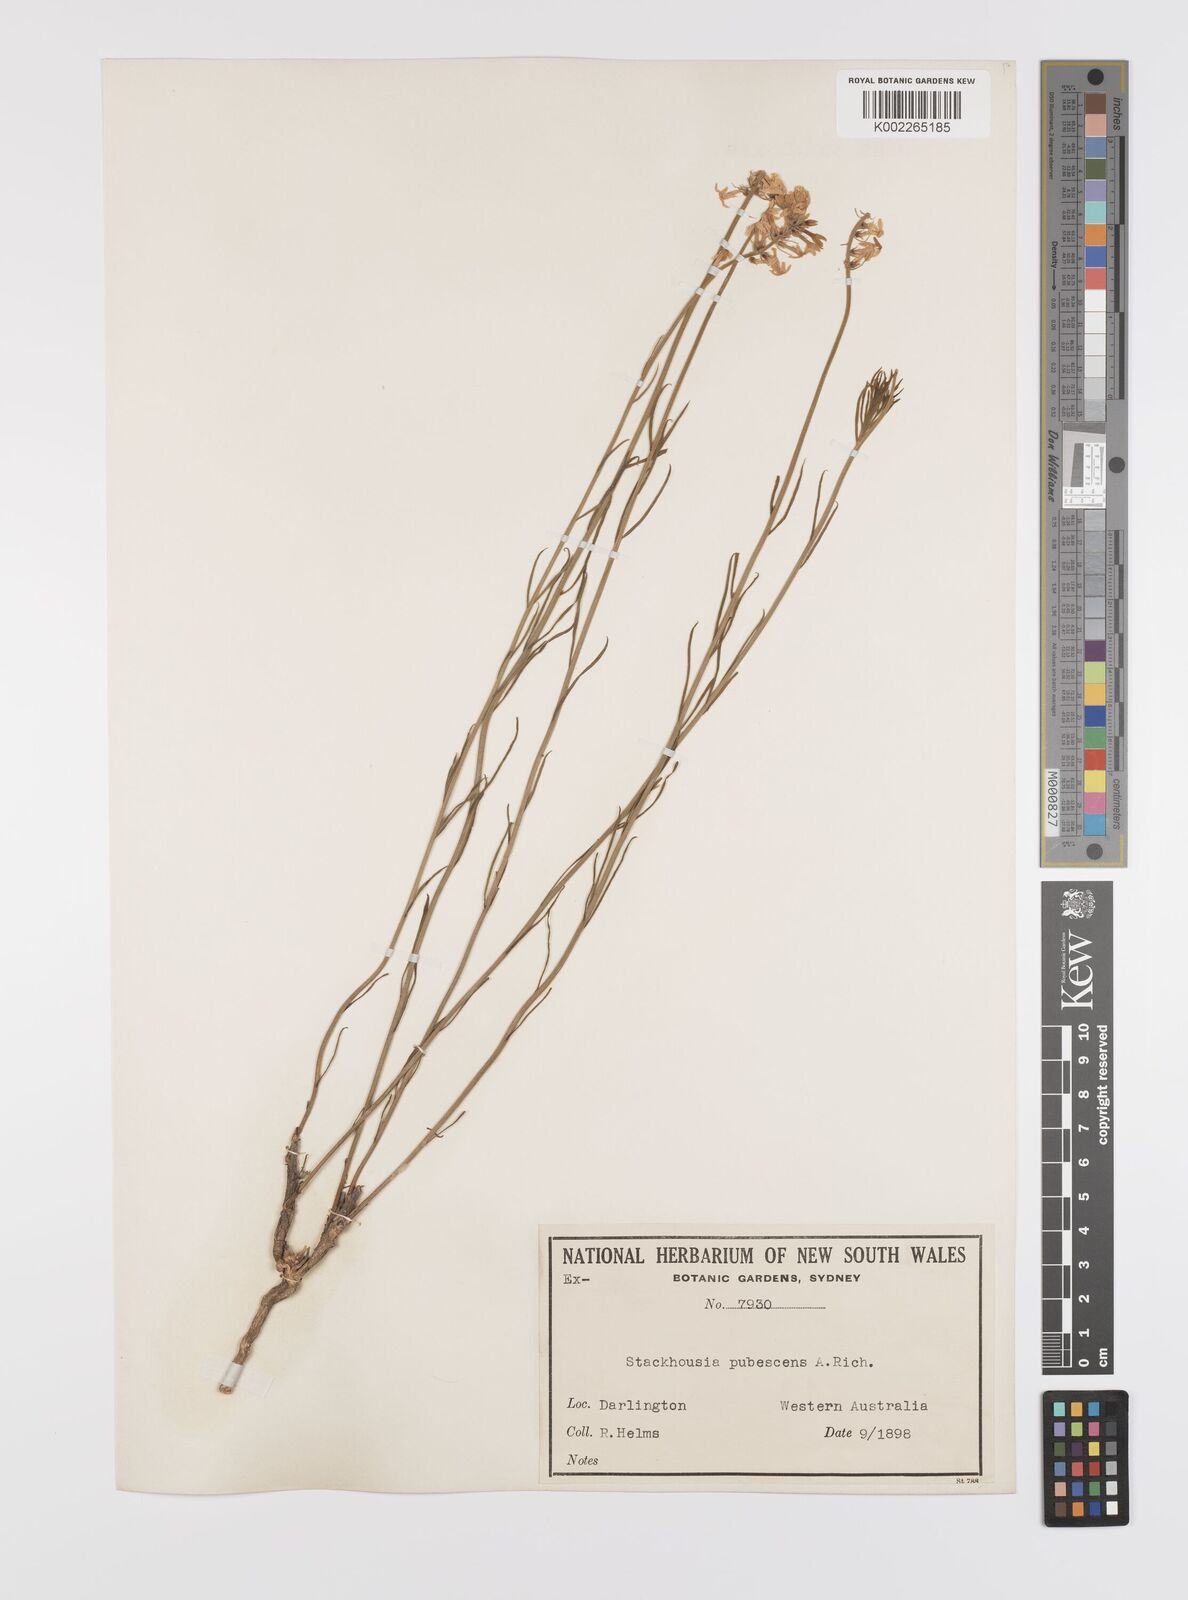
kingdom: Plantae
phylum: Tracheophyta
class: Magnoliopsida
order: Celastrales
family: Celastraceae
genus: Stackhousia
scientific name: Stackhousia monogyna
